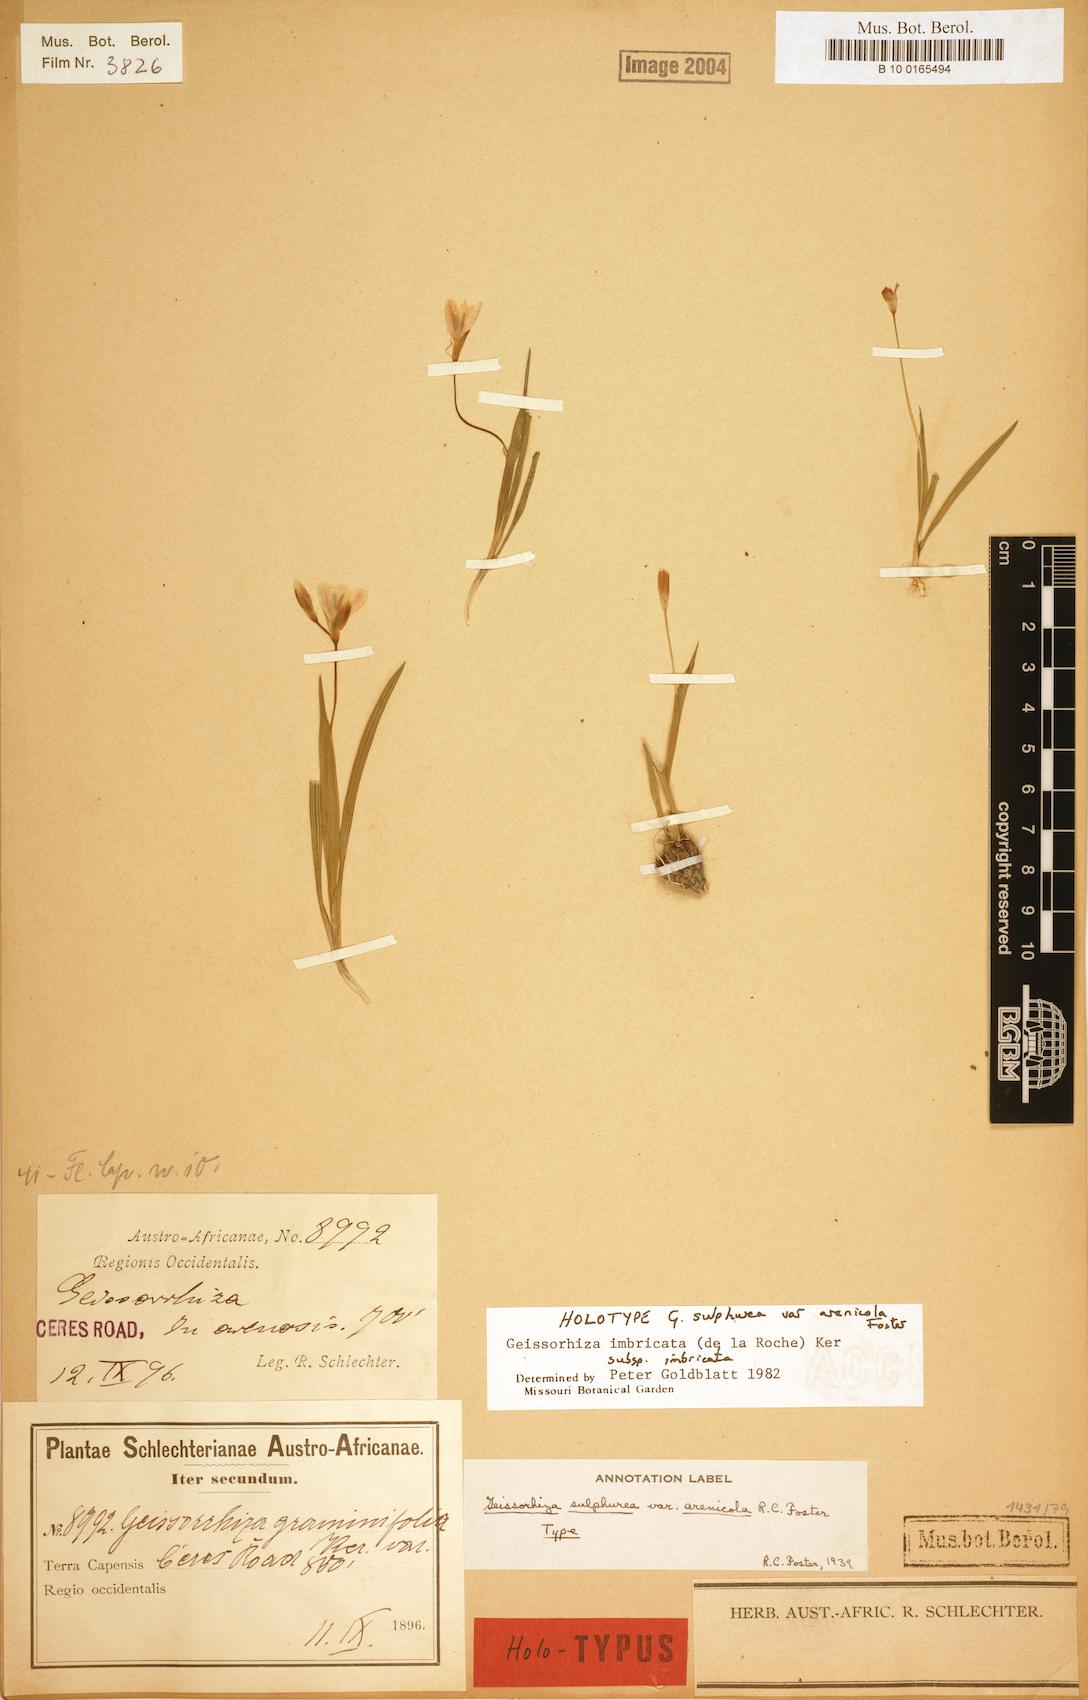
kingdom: Plantae
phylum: Tracheophyta
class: Liliopsida
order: Asparagales
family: Iridaceae
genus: Geissorhiza
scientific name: Geissorhiza imbricata
